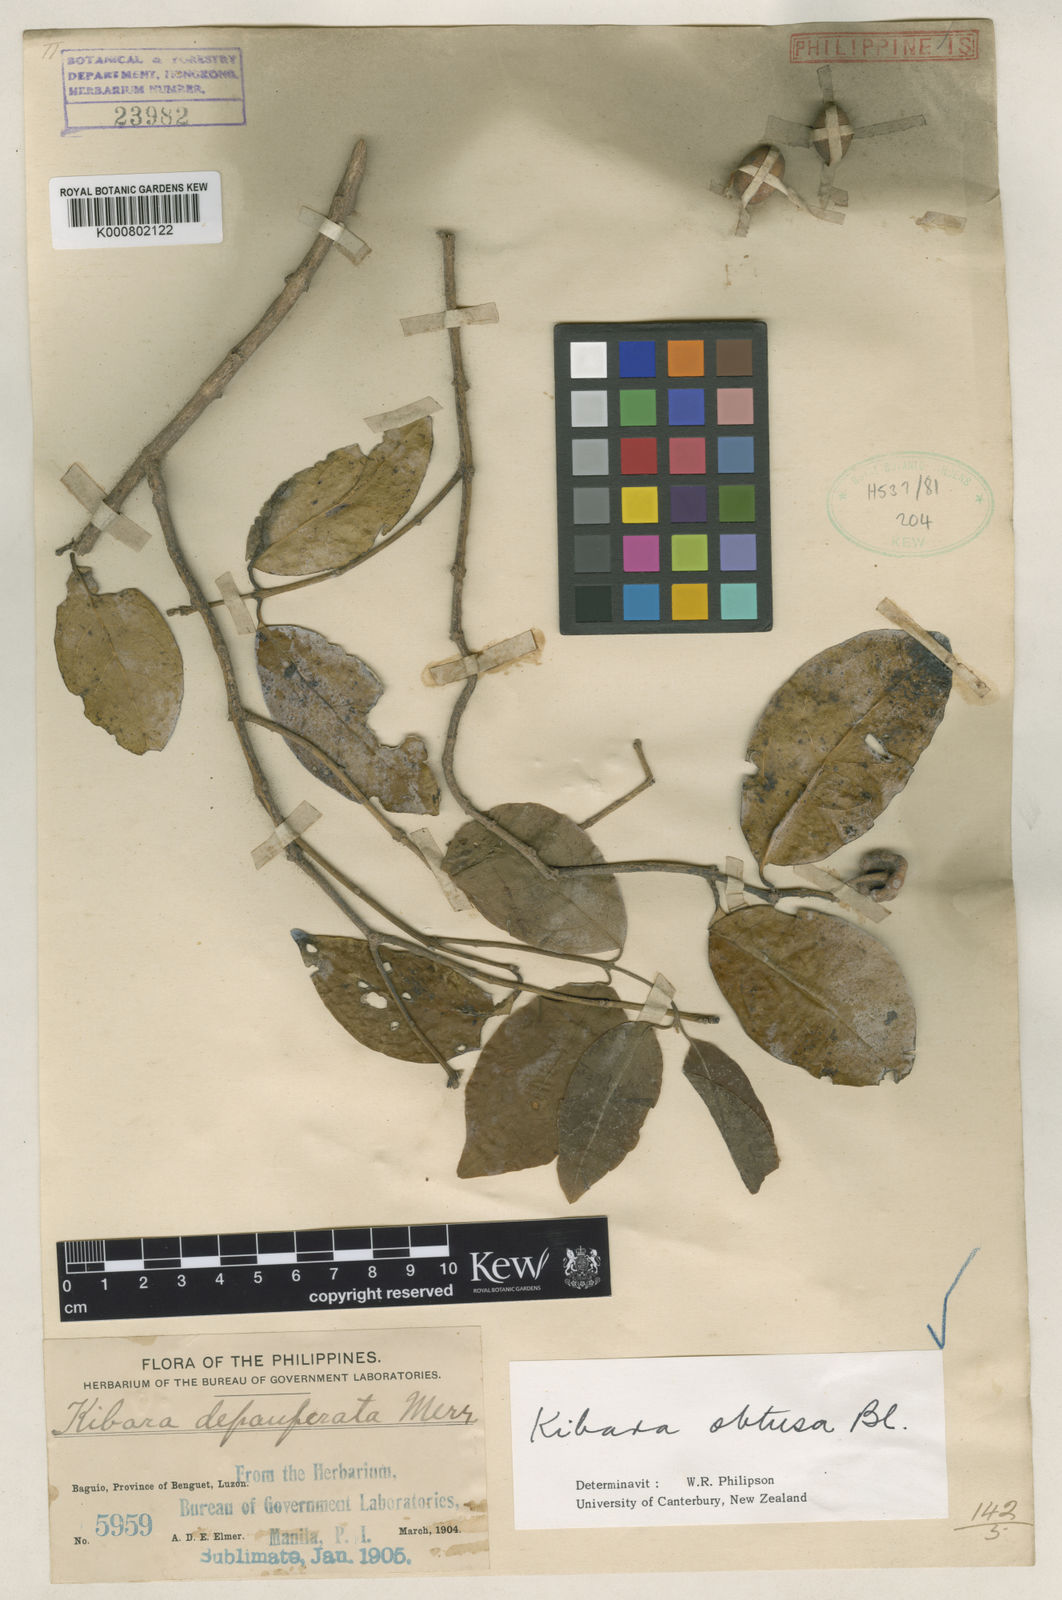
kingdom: Plantae
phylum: Tracheophyta
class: Magnoliopsida
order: Laurales
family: Monimiaceae
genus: Kibara
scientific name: Kibara obtusa
